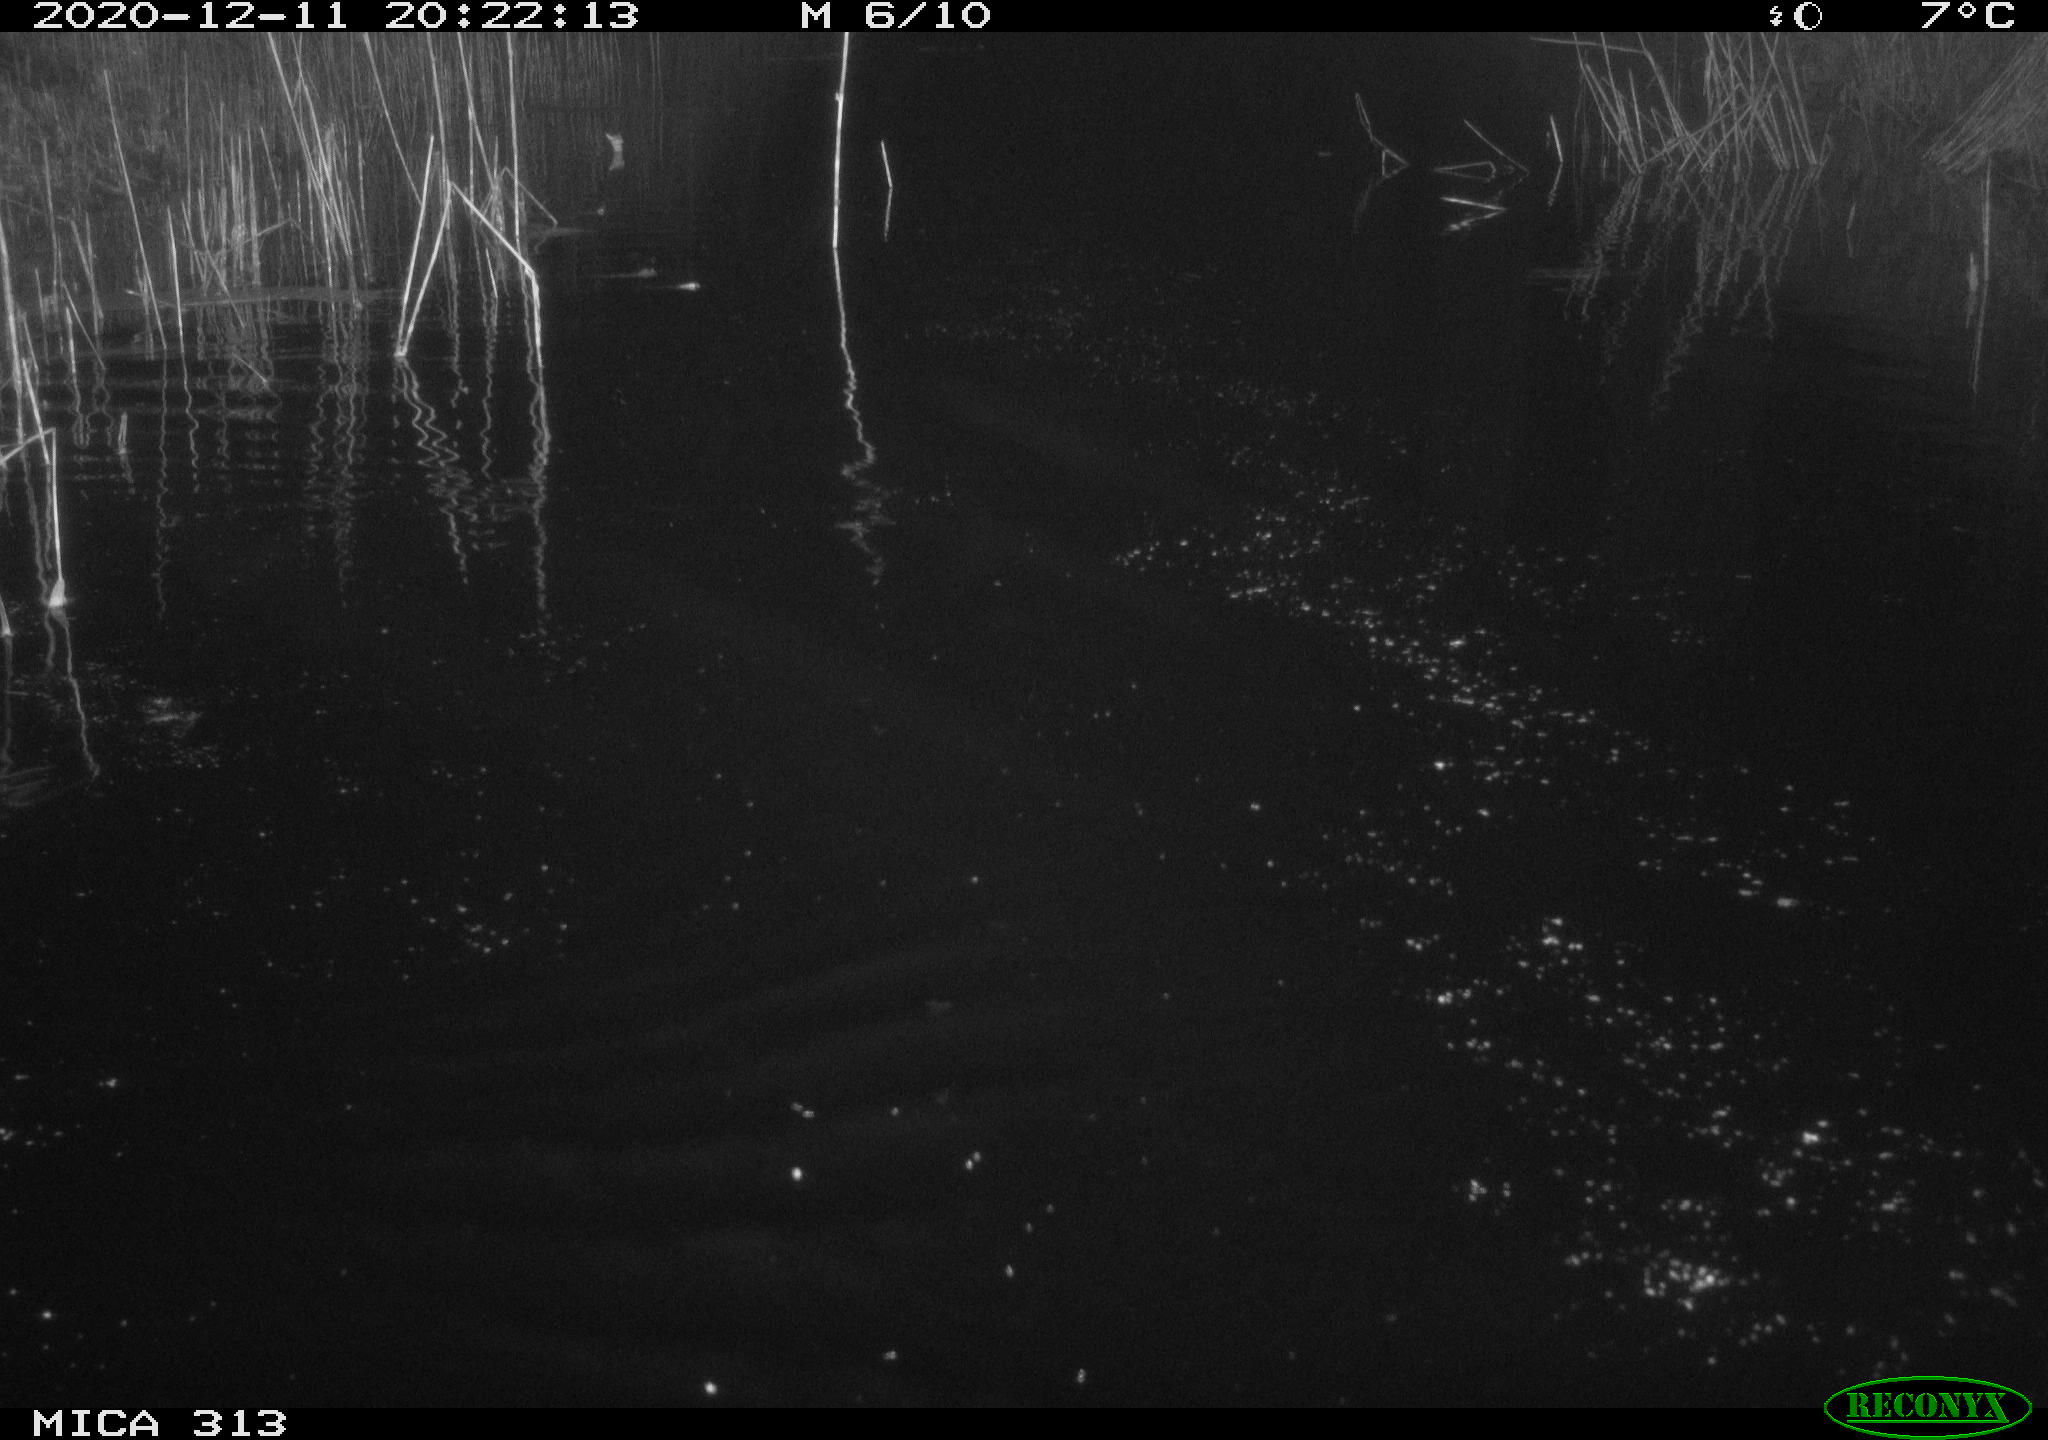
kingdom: Animalia
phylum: Chordata
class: Mammalia
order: Rodentia
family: Muridae
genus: Rattus
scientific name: Rattus norvegicus
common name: Brown rat
